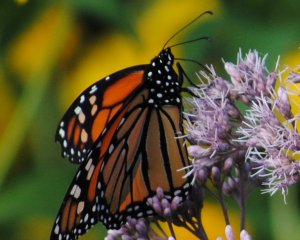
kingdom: Animalia
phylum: Arthropoda
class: Insecta
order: Lepidoptera
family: Nymphalidae
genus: Danaus
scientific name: Danaus plexippus
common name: Monarch
